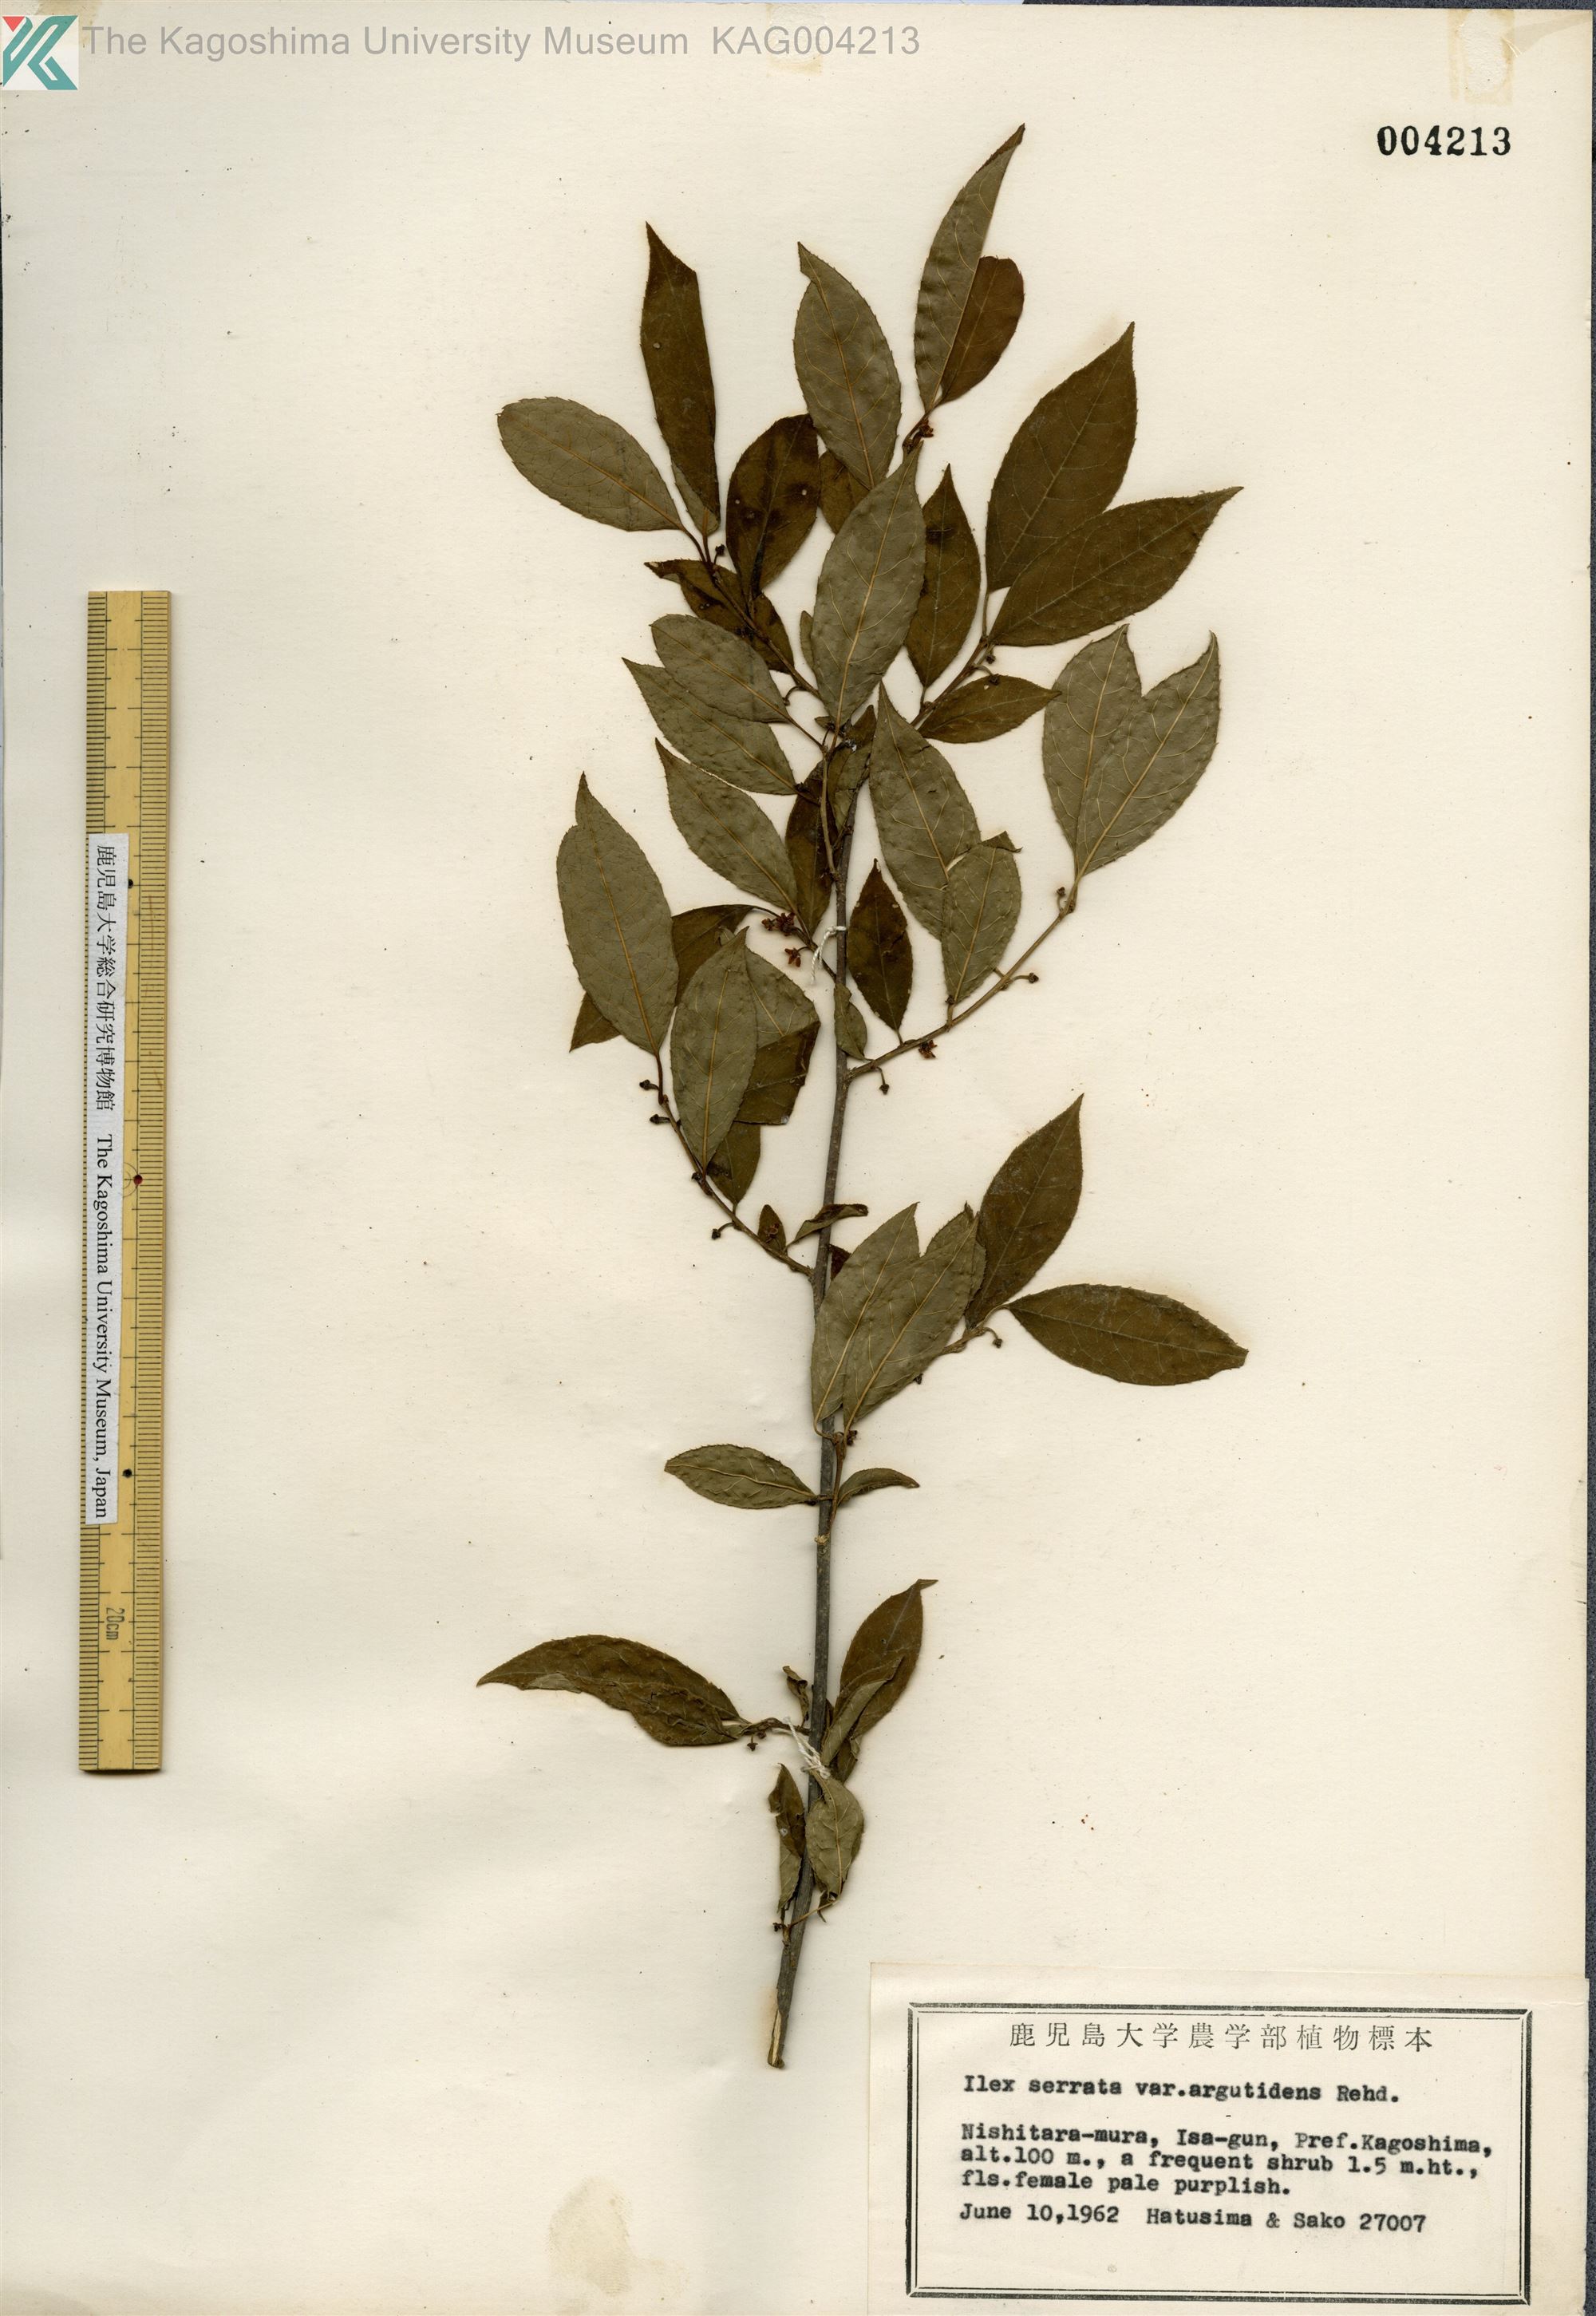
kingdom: Plantae
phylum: Tracheophyta
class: Magnoliopsida
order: Aquifoliales
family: Aquifoliaceae
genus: Ilex
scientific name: Ilex serrata
